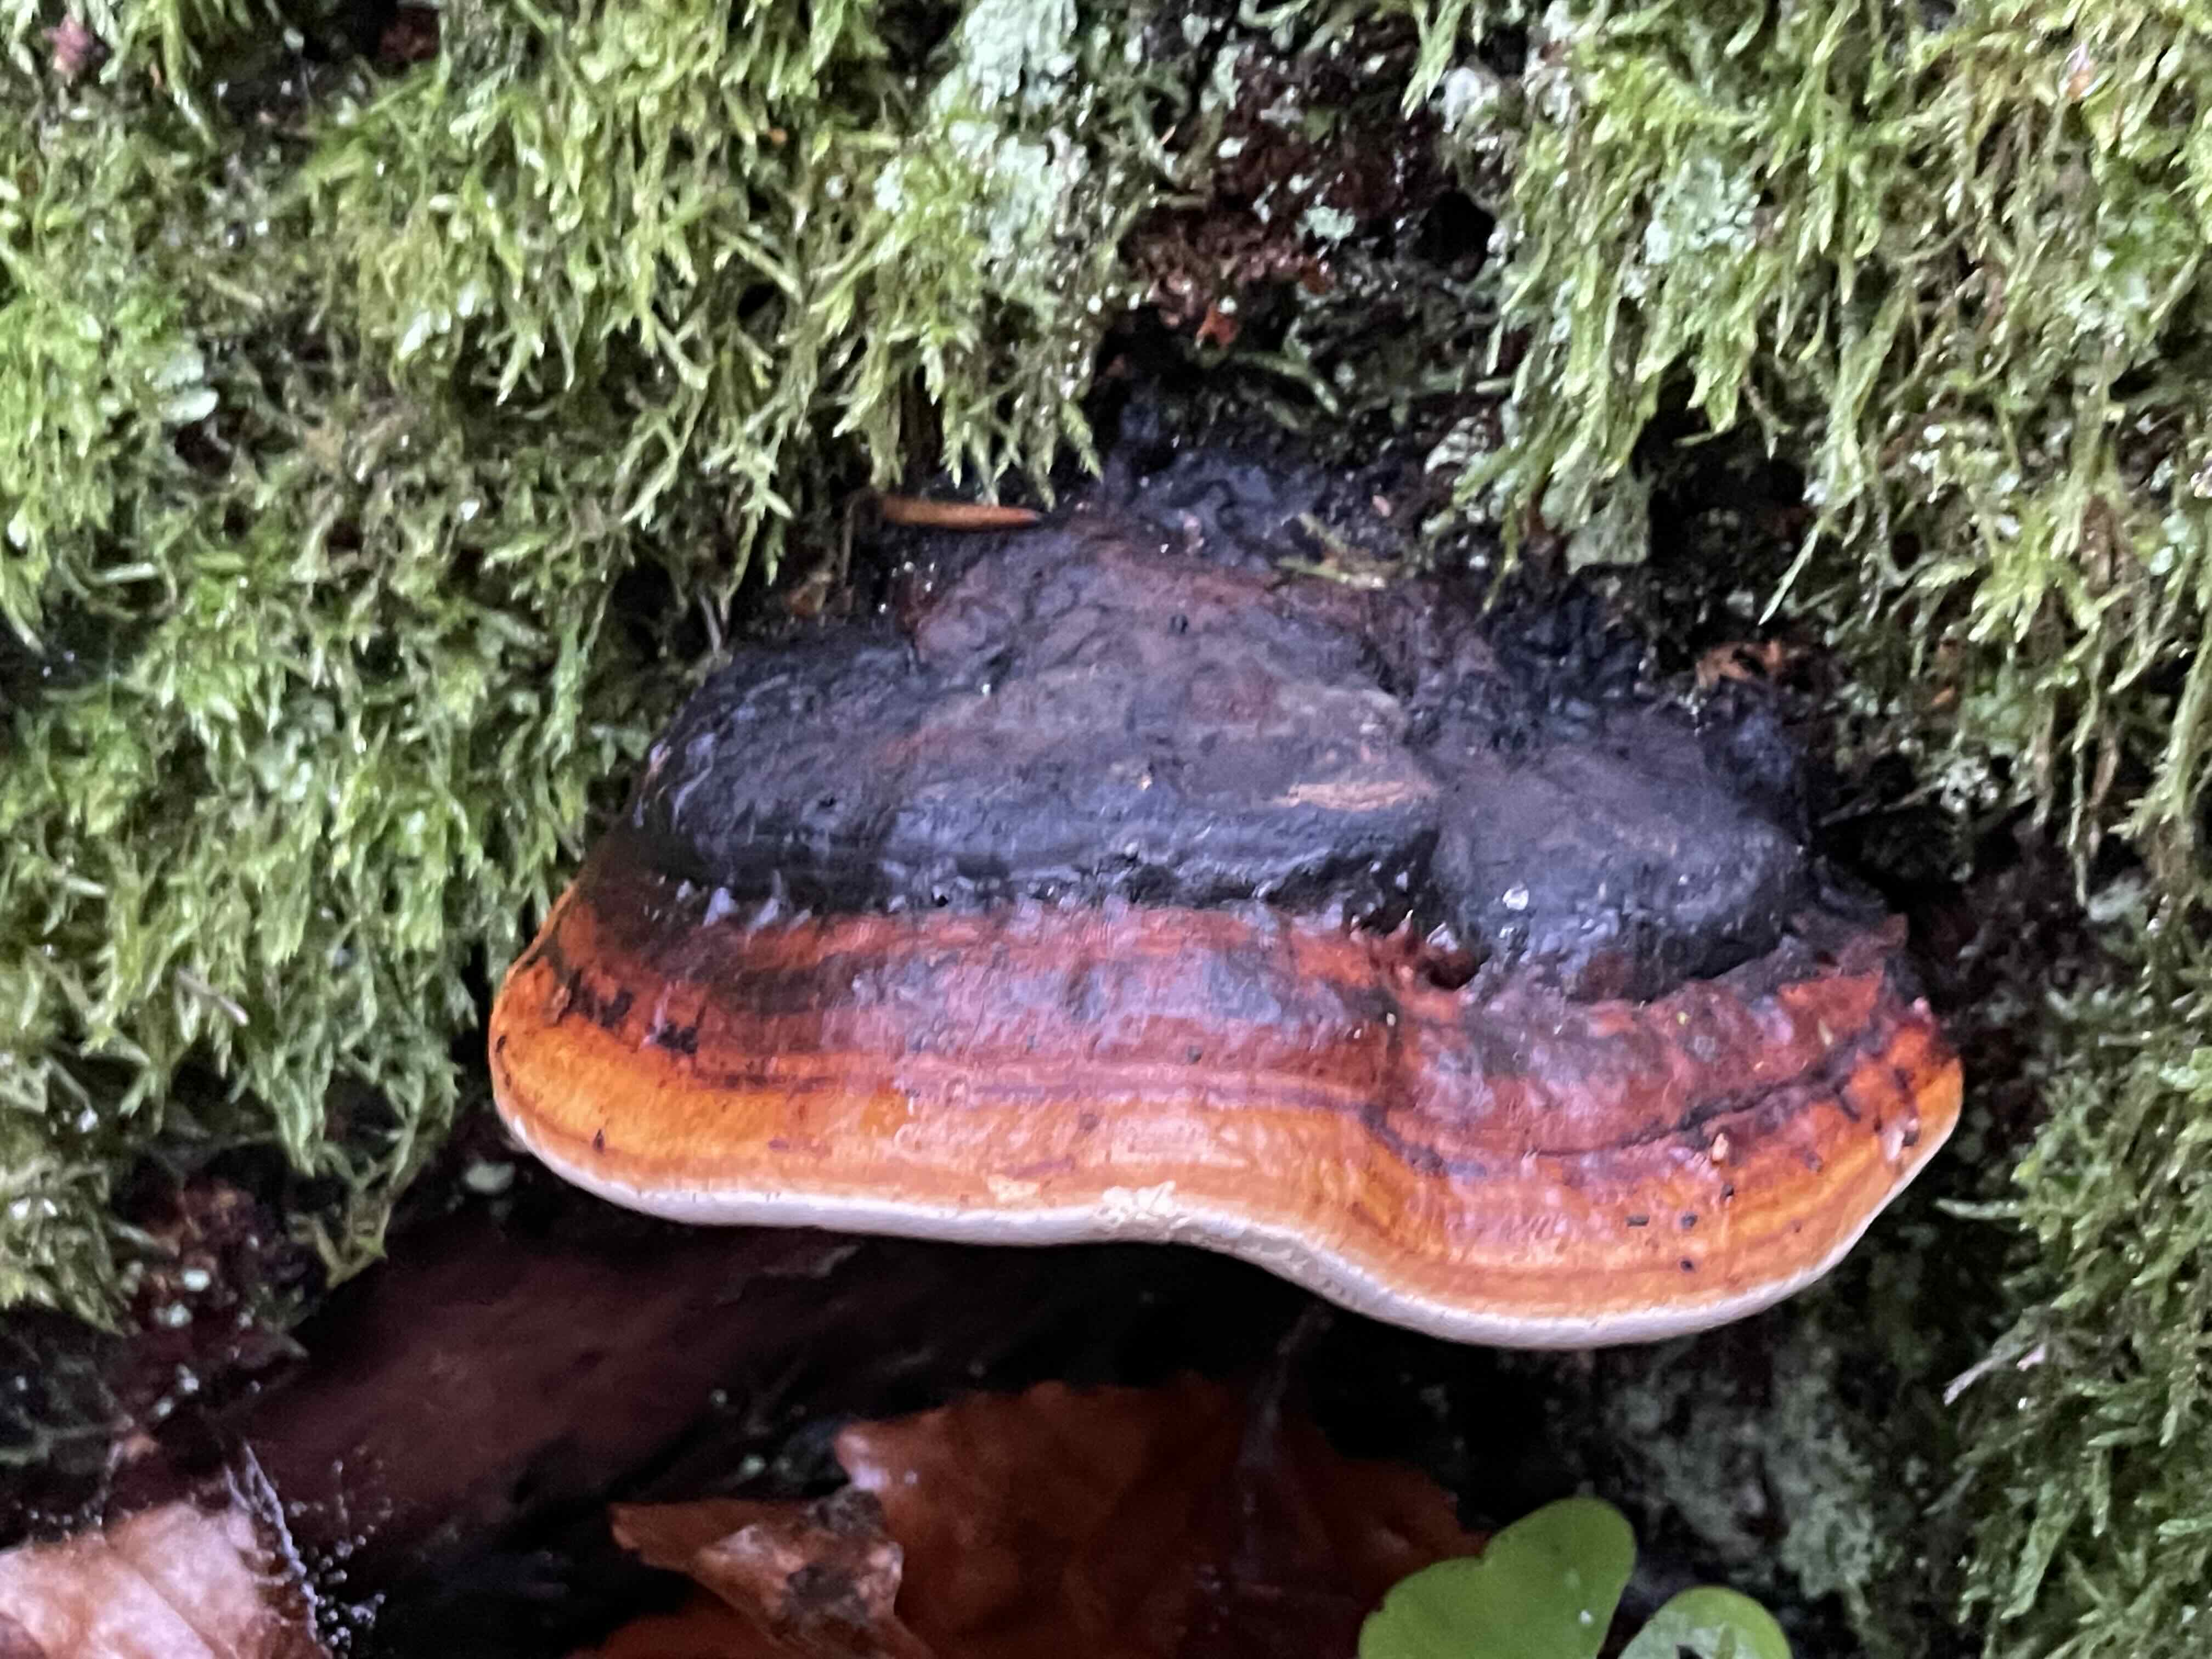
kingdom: Fungi
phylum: Basidiomycota
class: Agaricomycetes
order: Polyporales
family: Fomitopsidaceae
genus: Fomitopsis
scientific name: Fomitopsis pinicola
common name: randbæltet hovporesvamp
